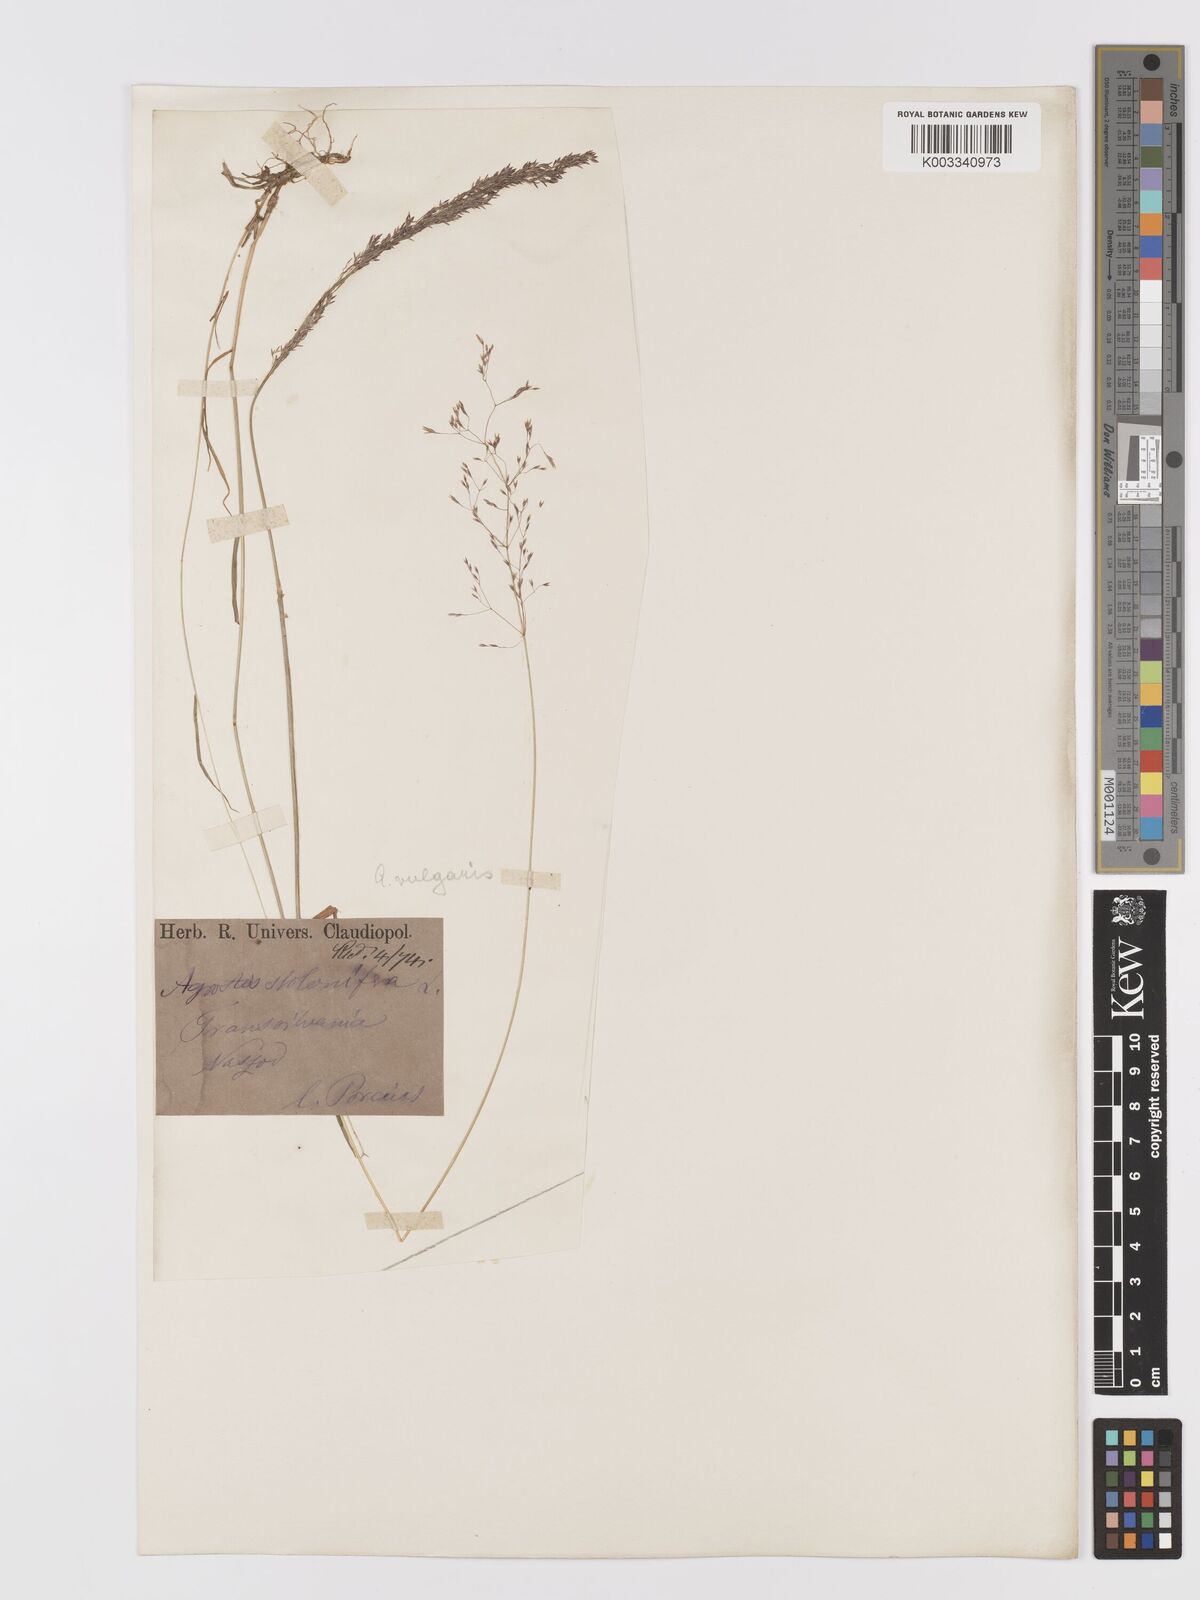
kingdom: Plantae
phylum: Tracheophyta
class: Liliopsida
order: Poales
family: Poaceae
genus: Agrostis
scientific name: Agrostis capillaris
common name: Colonial bentgrass
